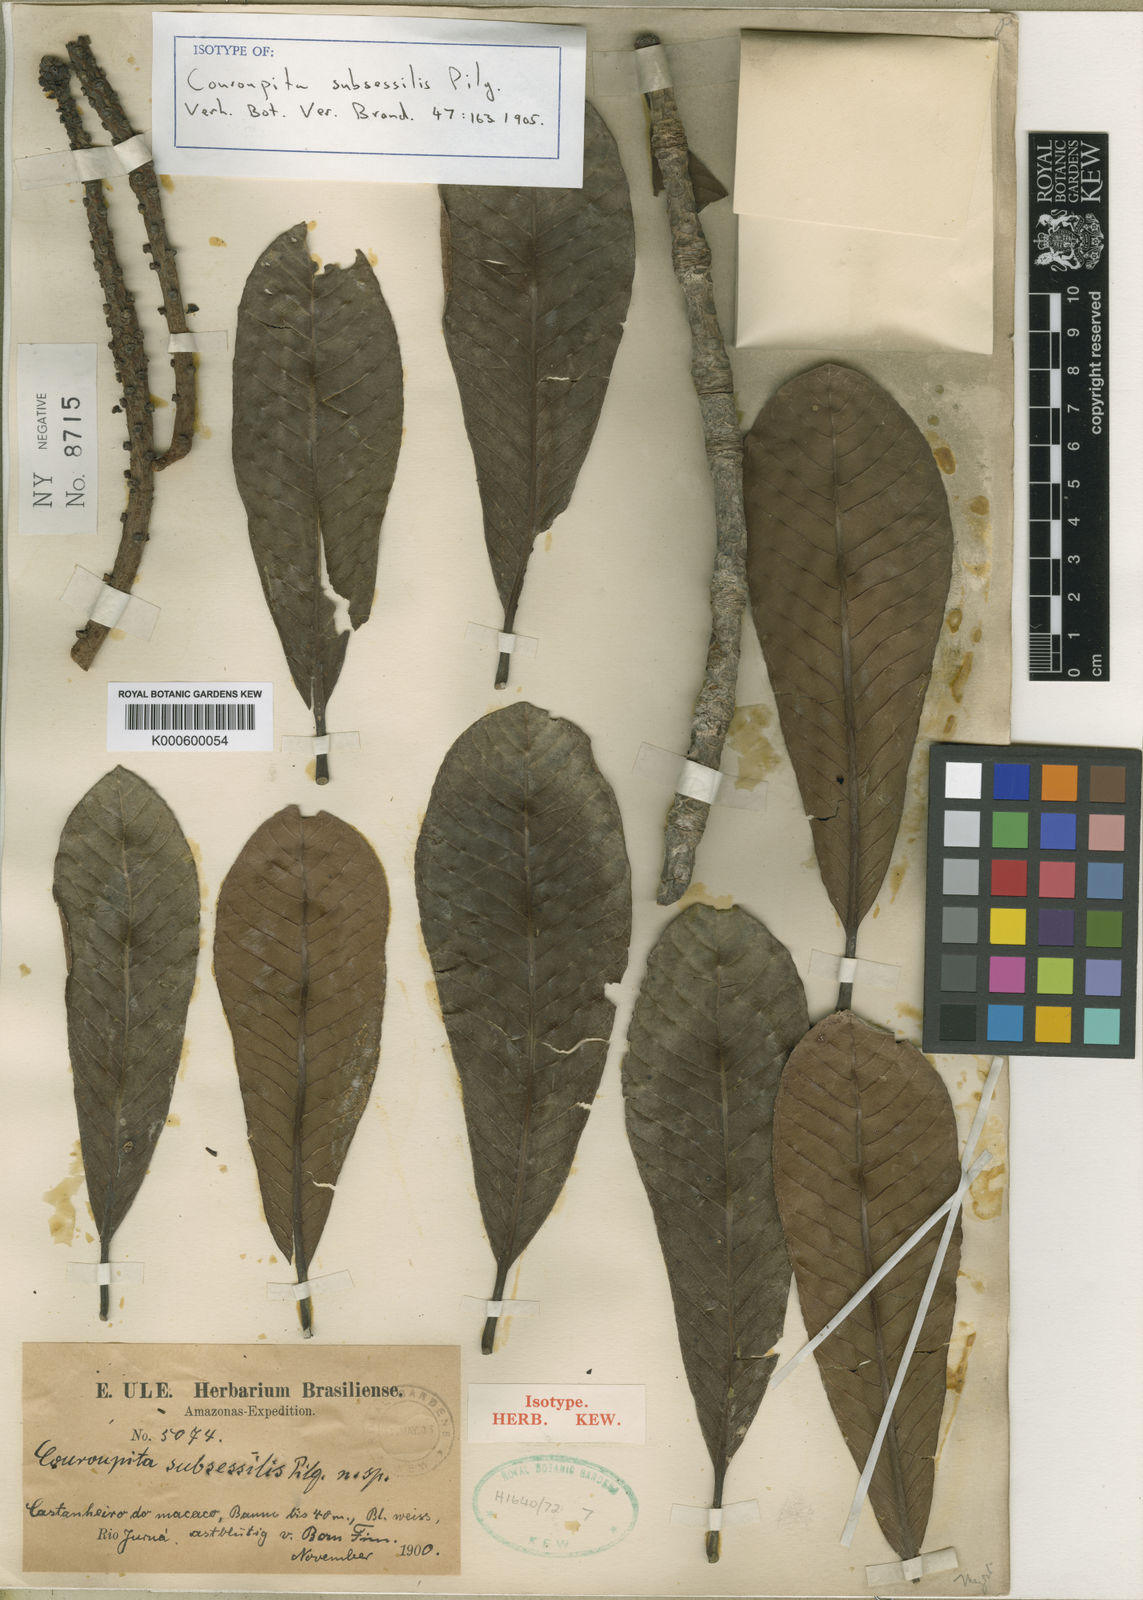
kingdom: Plantae
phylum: Tracheophyta
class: Magnoliopsida
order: Ericales
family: Lecythidaceae
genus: Couroupita
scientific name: Couroupita subsessilis
